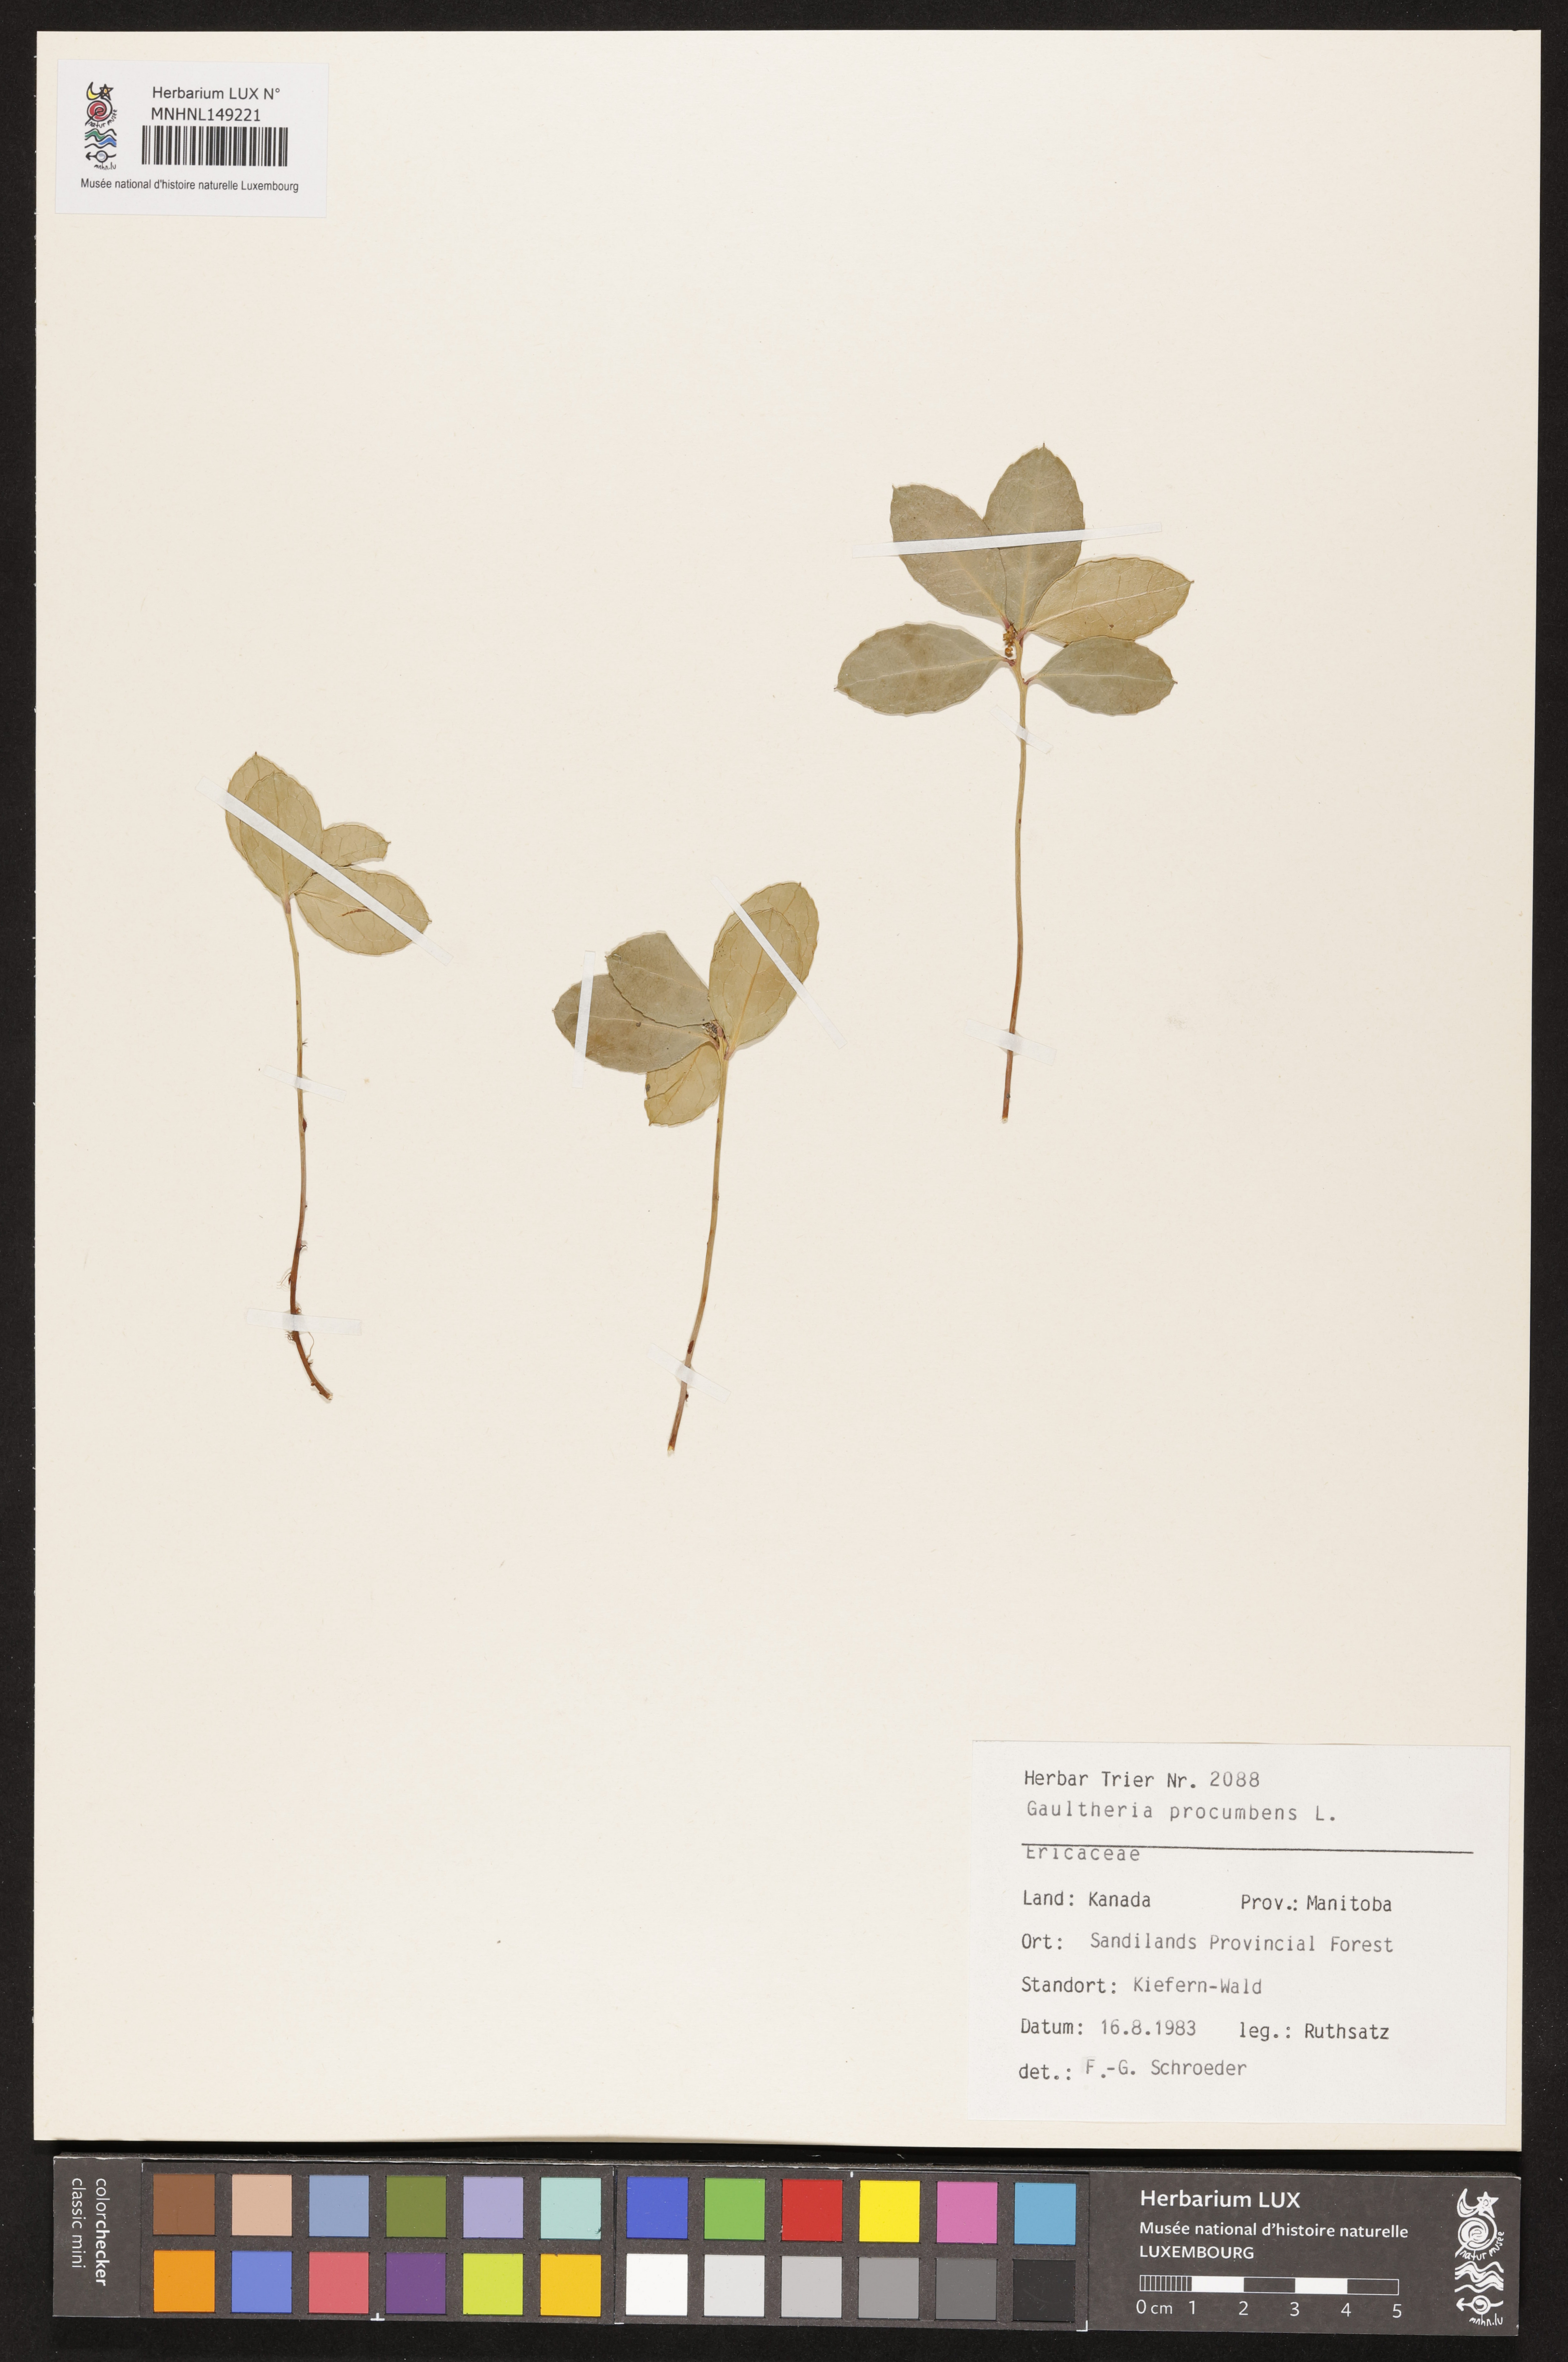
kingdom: Plantae
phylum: Tracheophyta
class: Magnoliopsida
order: Ericales
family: Ericaceae
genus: Gaultheria
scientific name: Gaultheria procumbens
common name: Checkerberry
